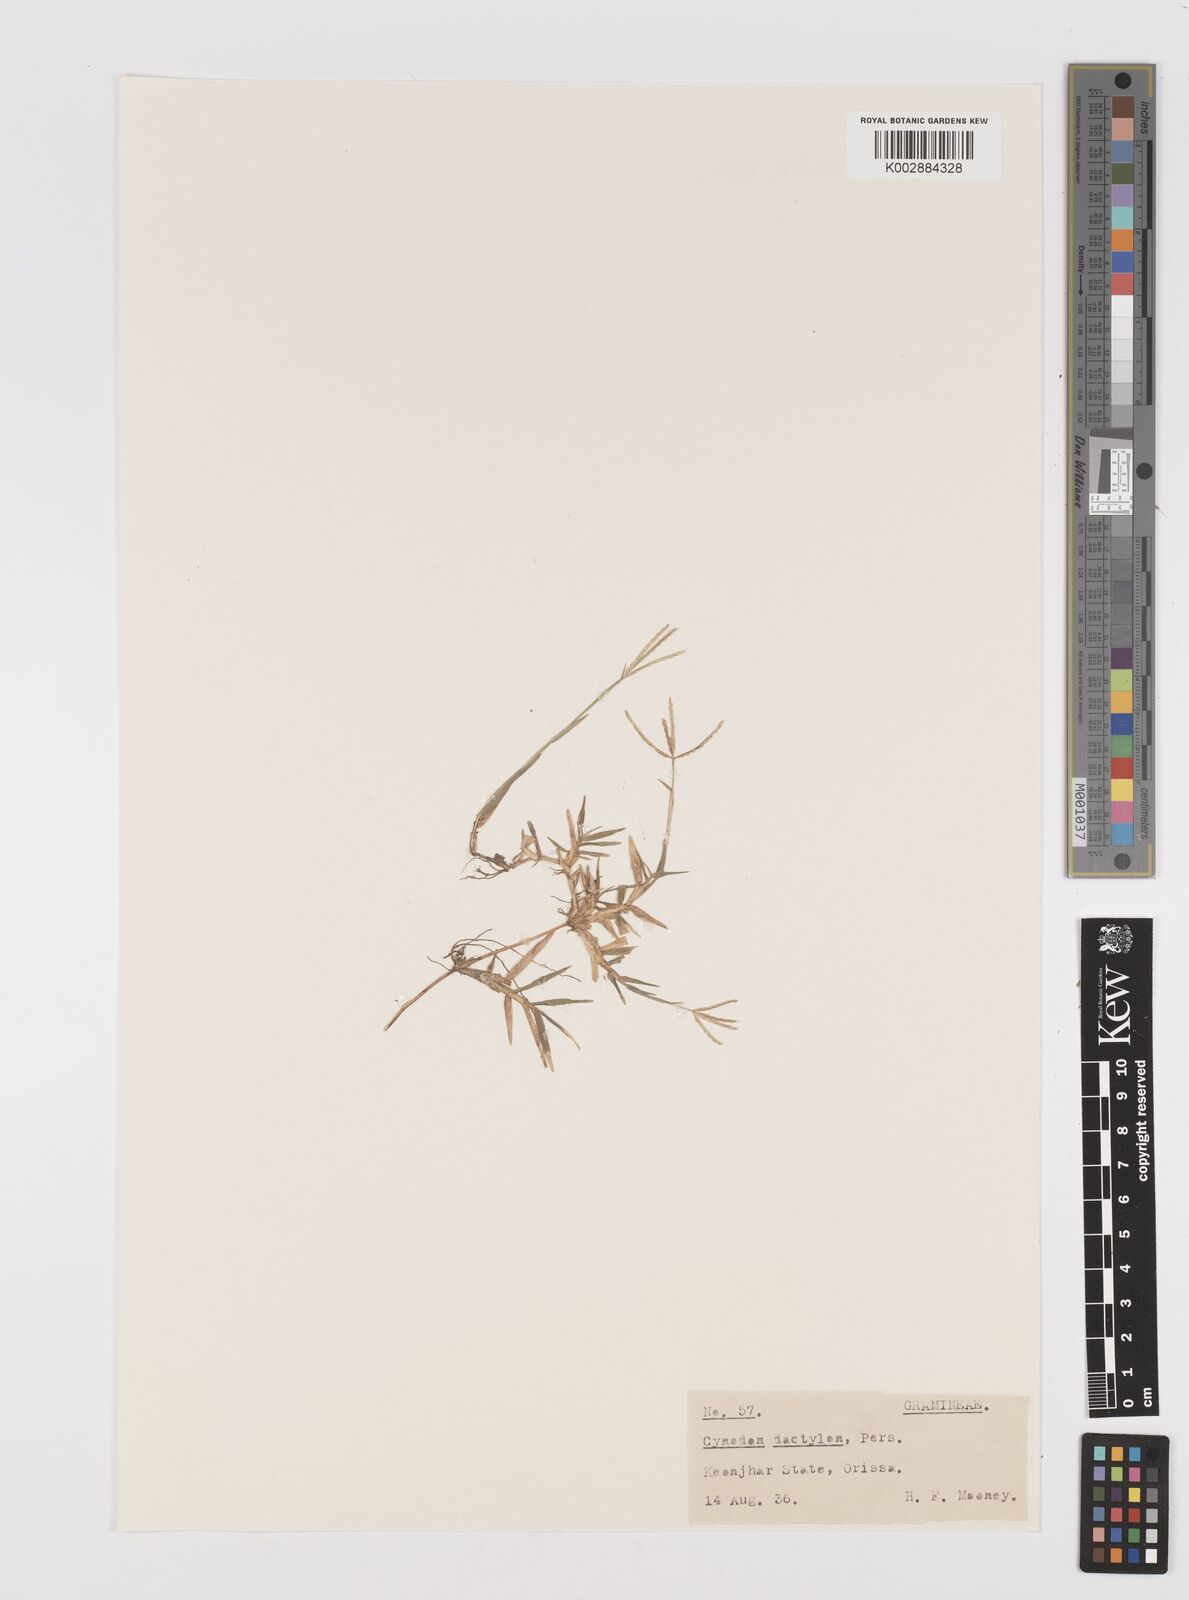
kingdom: Plantae
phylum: Tracheophyta
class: Liliopsida
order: Poales
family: Poaceae
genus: Cynodon
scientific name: Cynodon dactylon
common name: Bermuda grass
